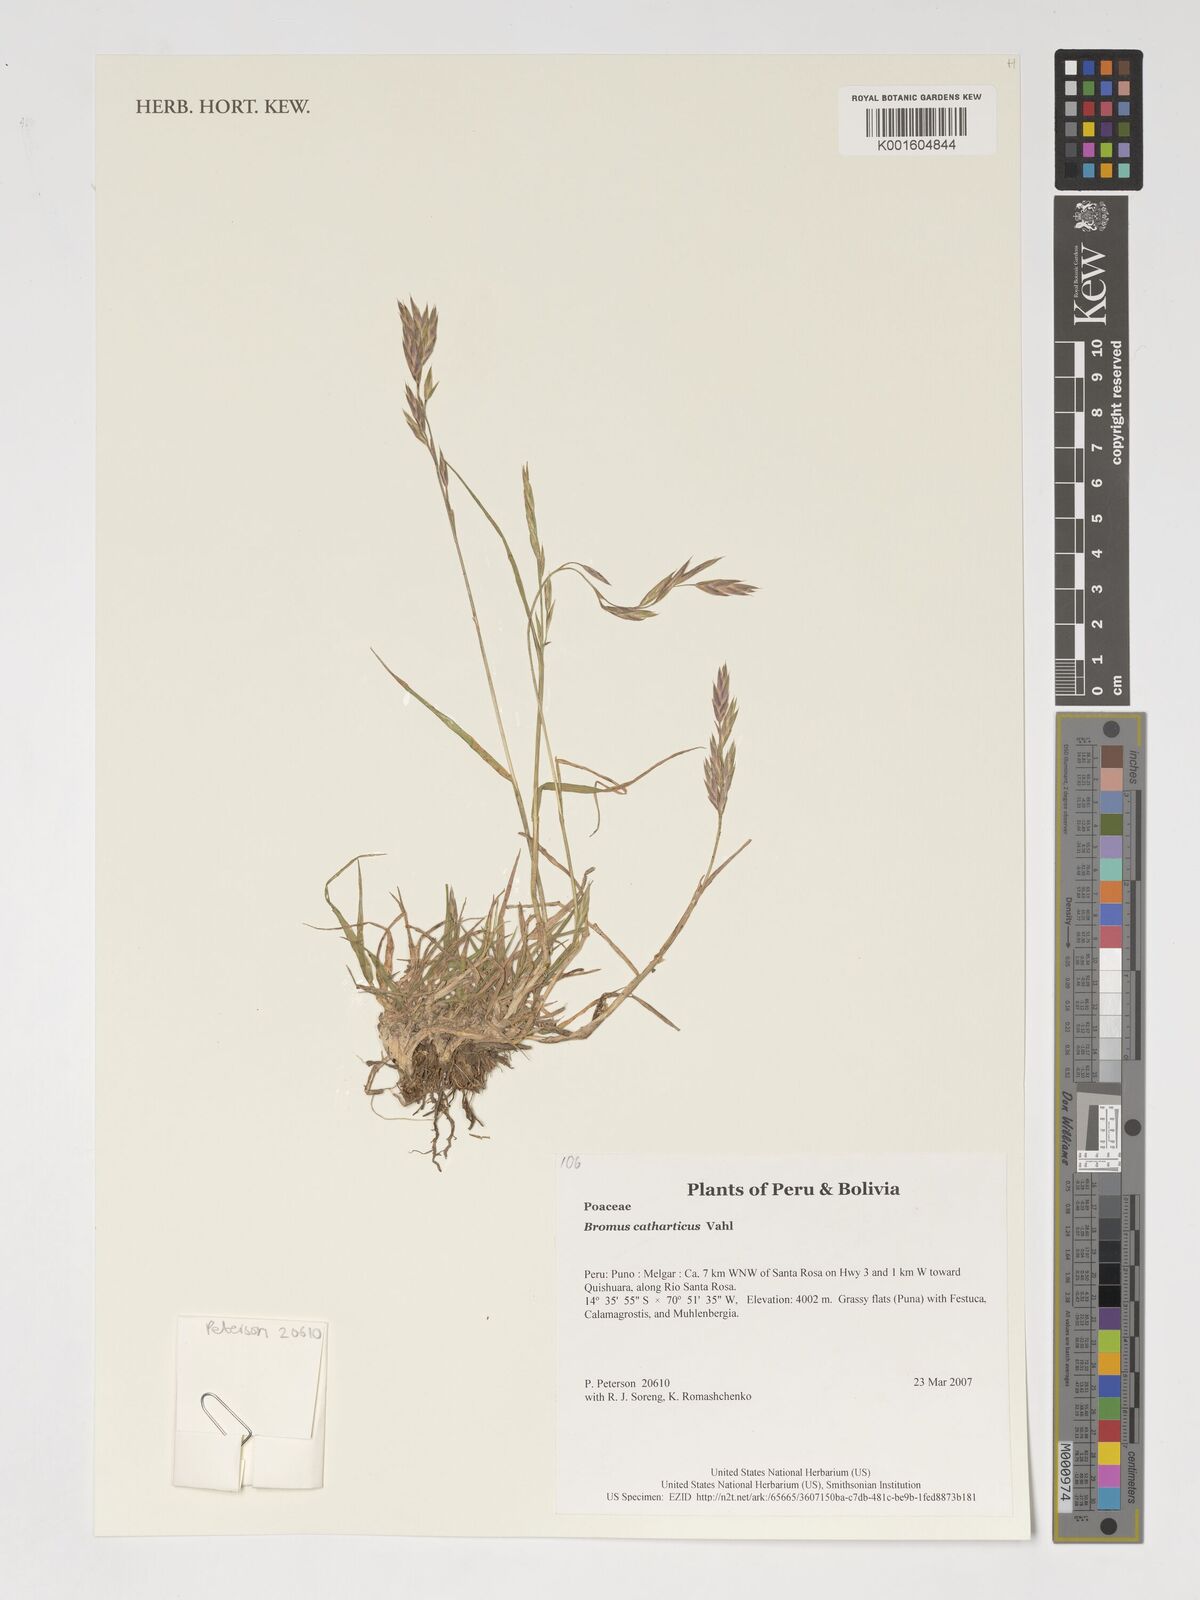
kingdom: Plantae
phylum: Tracheophyta
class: Liliopsida
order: Poales
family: Poaceae
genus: Bromus
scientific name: Bromus catharticus
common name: Rescuegrass
